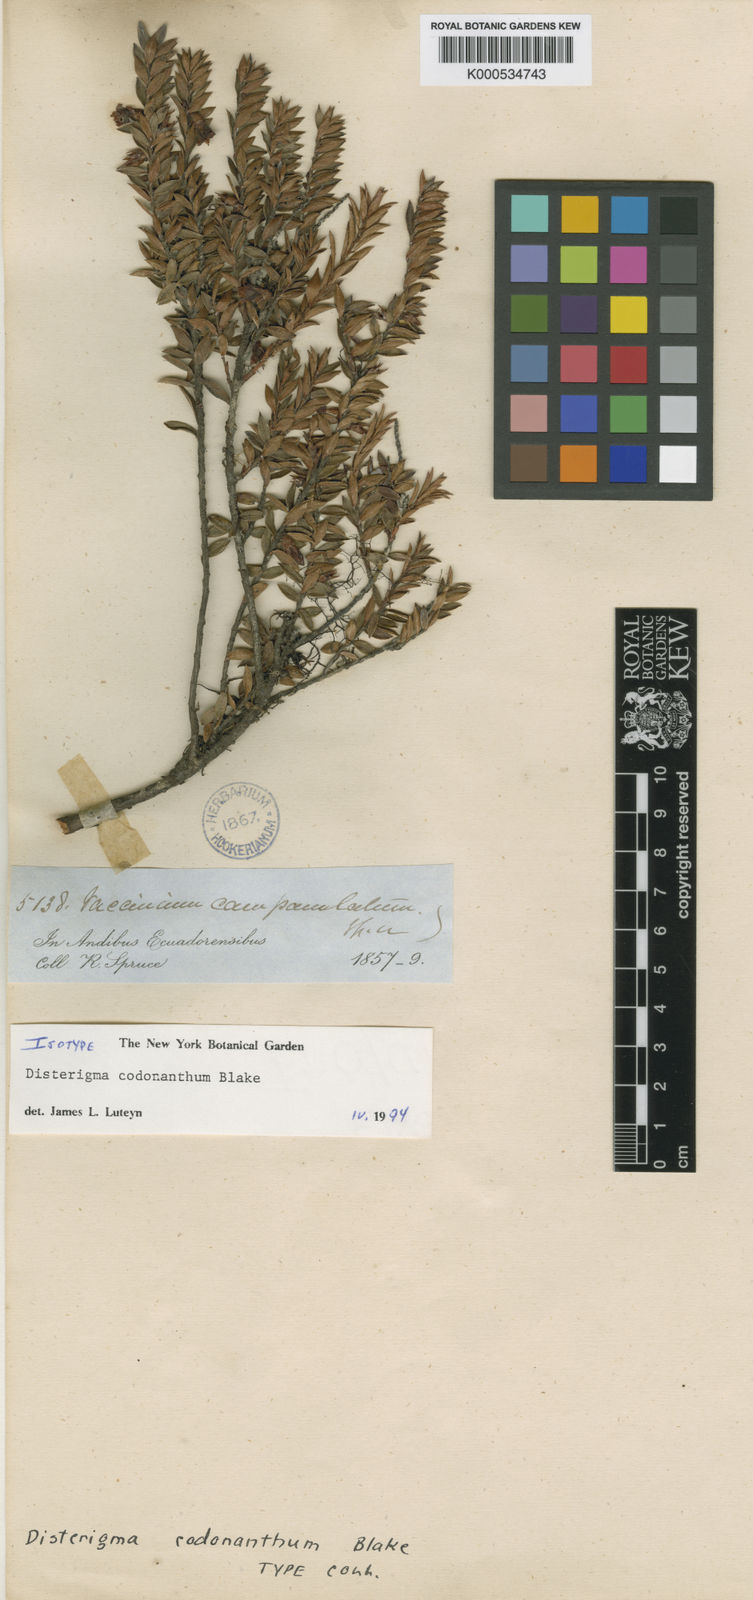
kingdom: Plantae
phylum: Tracheophyta
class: Magnoliopsida
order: Ericales
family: Ericaceae
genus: Disterigma
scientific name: Disterigma codonanthum
